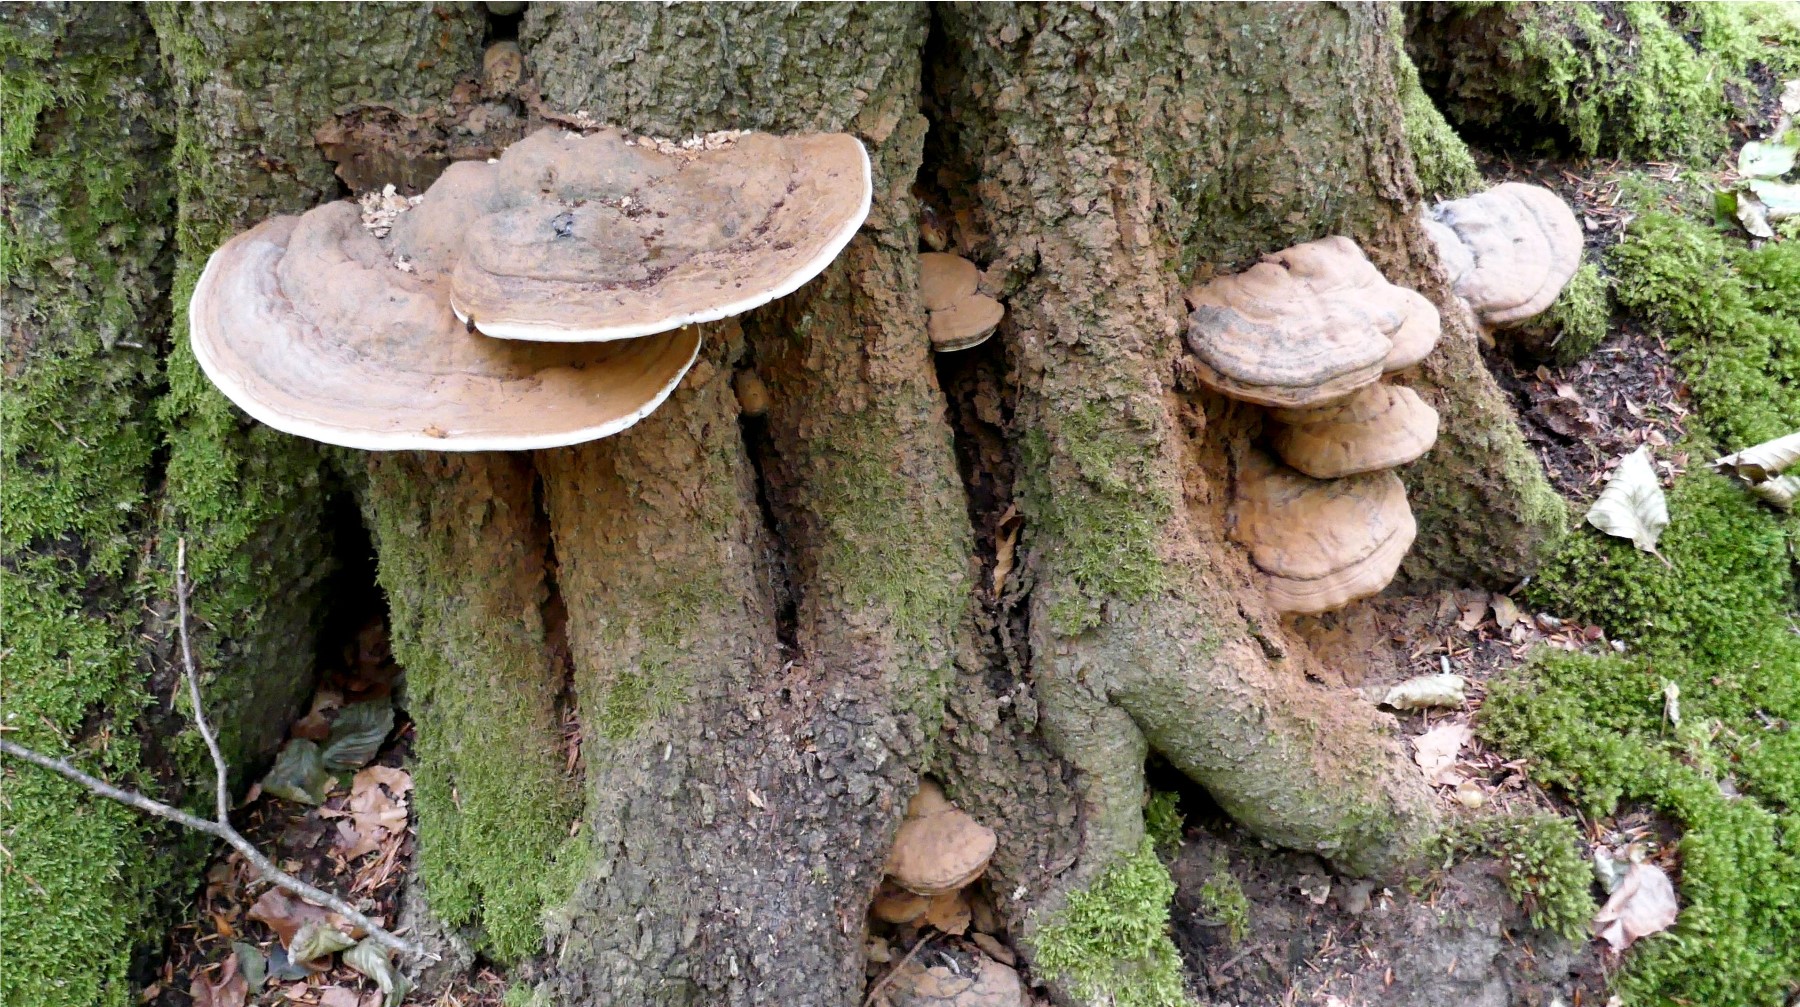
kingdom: Fungi
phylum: Basidiomycota
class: Agaricomycetes
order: Polyporales
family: Polyporaceae
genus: Ganoderma
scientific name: Ganoderma pfeifferi
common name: kobberrød lakporesvamp
